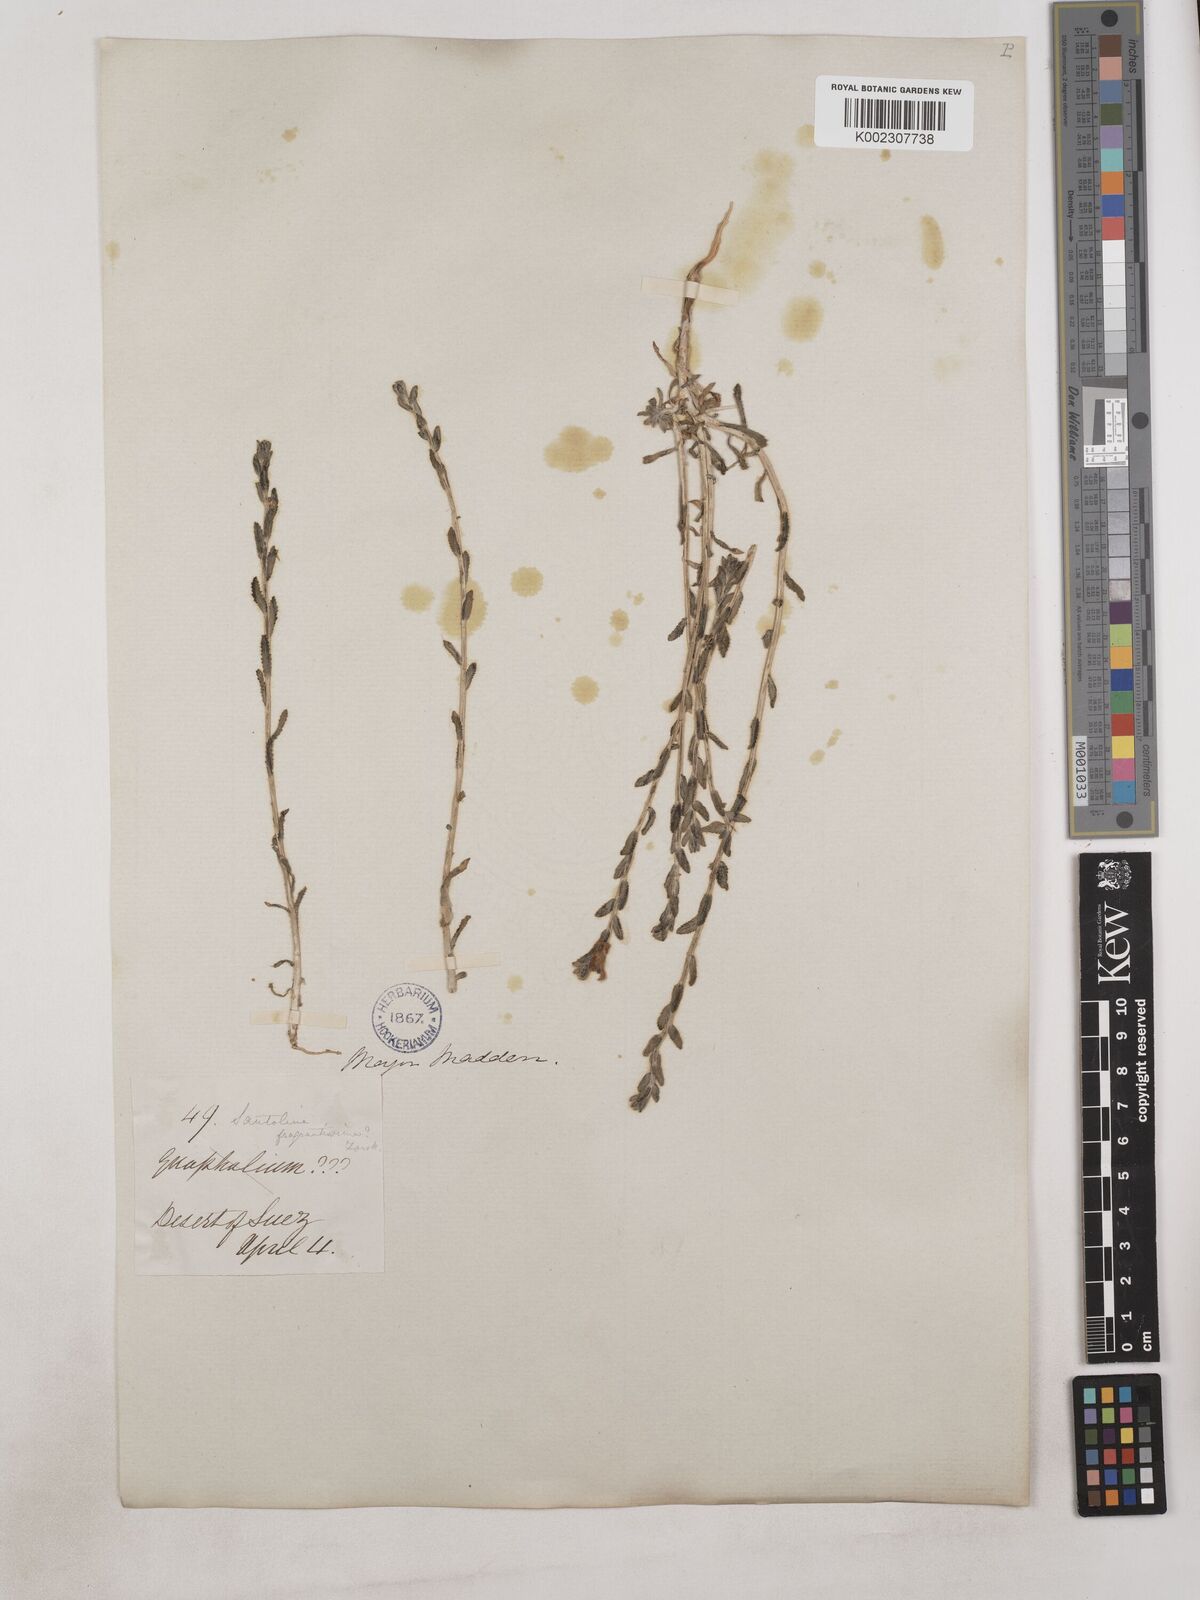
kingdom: Plantae
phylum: Tracheophyta
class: Magnoliopsida
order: Asterales
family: Asteraceae
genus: Achillea
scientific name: Achillea fragrantissima
